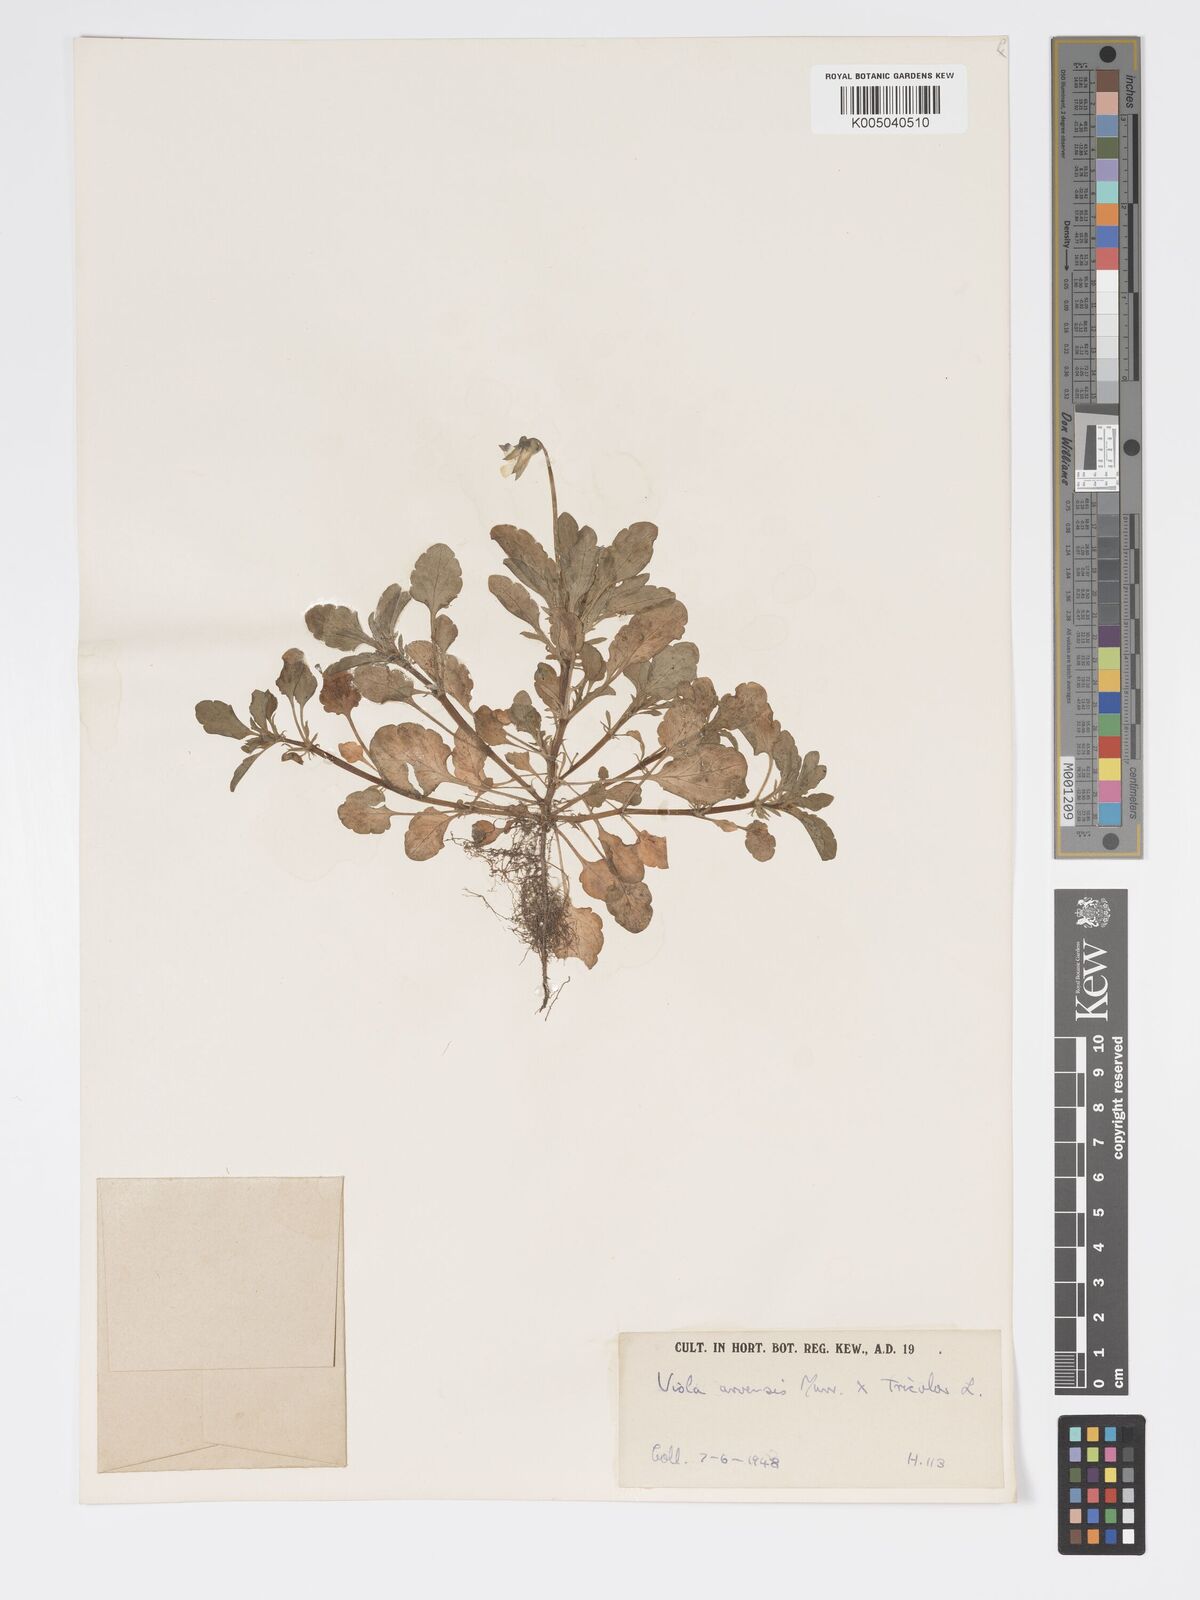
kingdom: Plantae
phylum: Tracheophyta
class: Magnoliopsida
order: Malpighiales
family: Violaceae
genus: Viola
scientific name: Viola arvensis
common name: Field pansy
